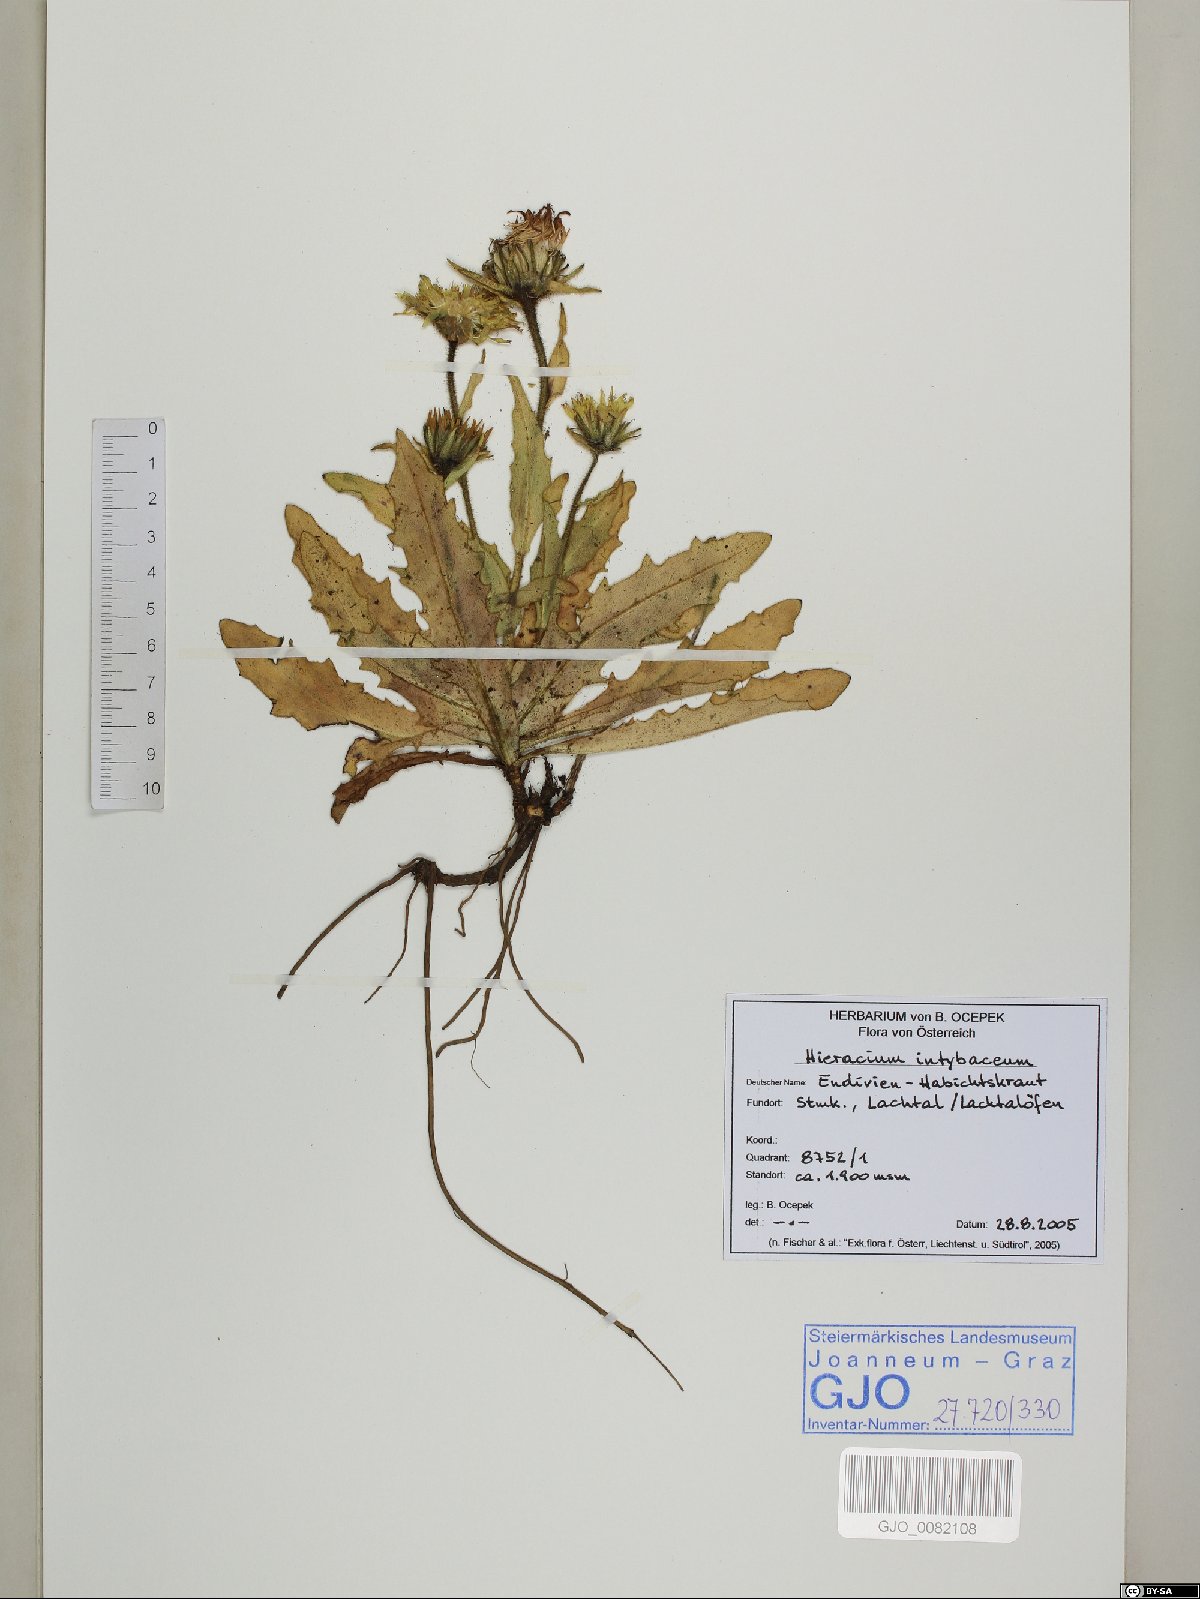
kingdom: Plantae
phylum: Tracheophyta
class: Magnoliopsida
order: Asterales
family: Asteraceae
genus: Schlagintweitia
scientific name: Schlagintweitia intybacea
